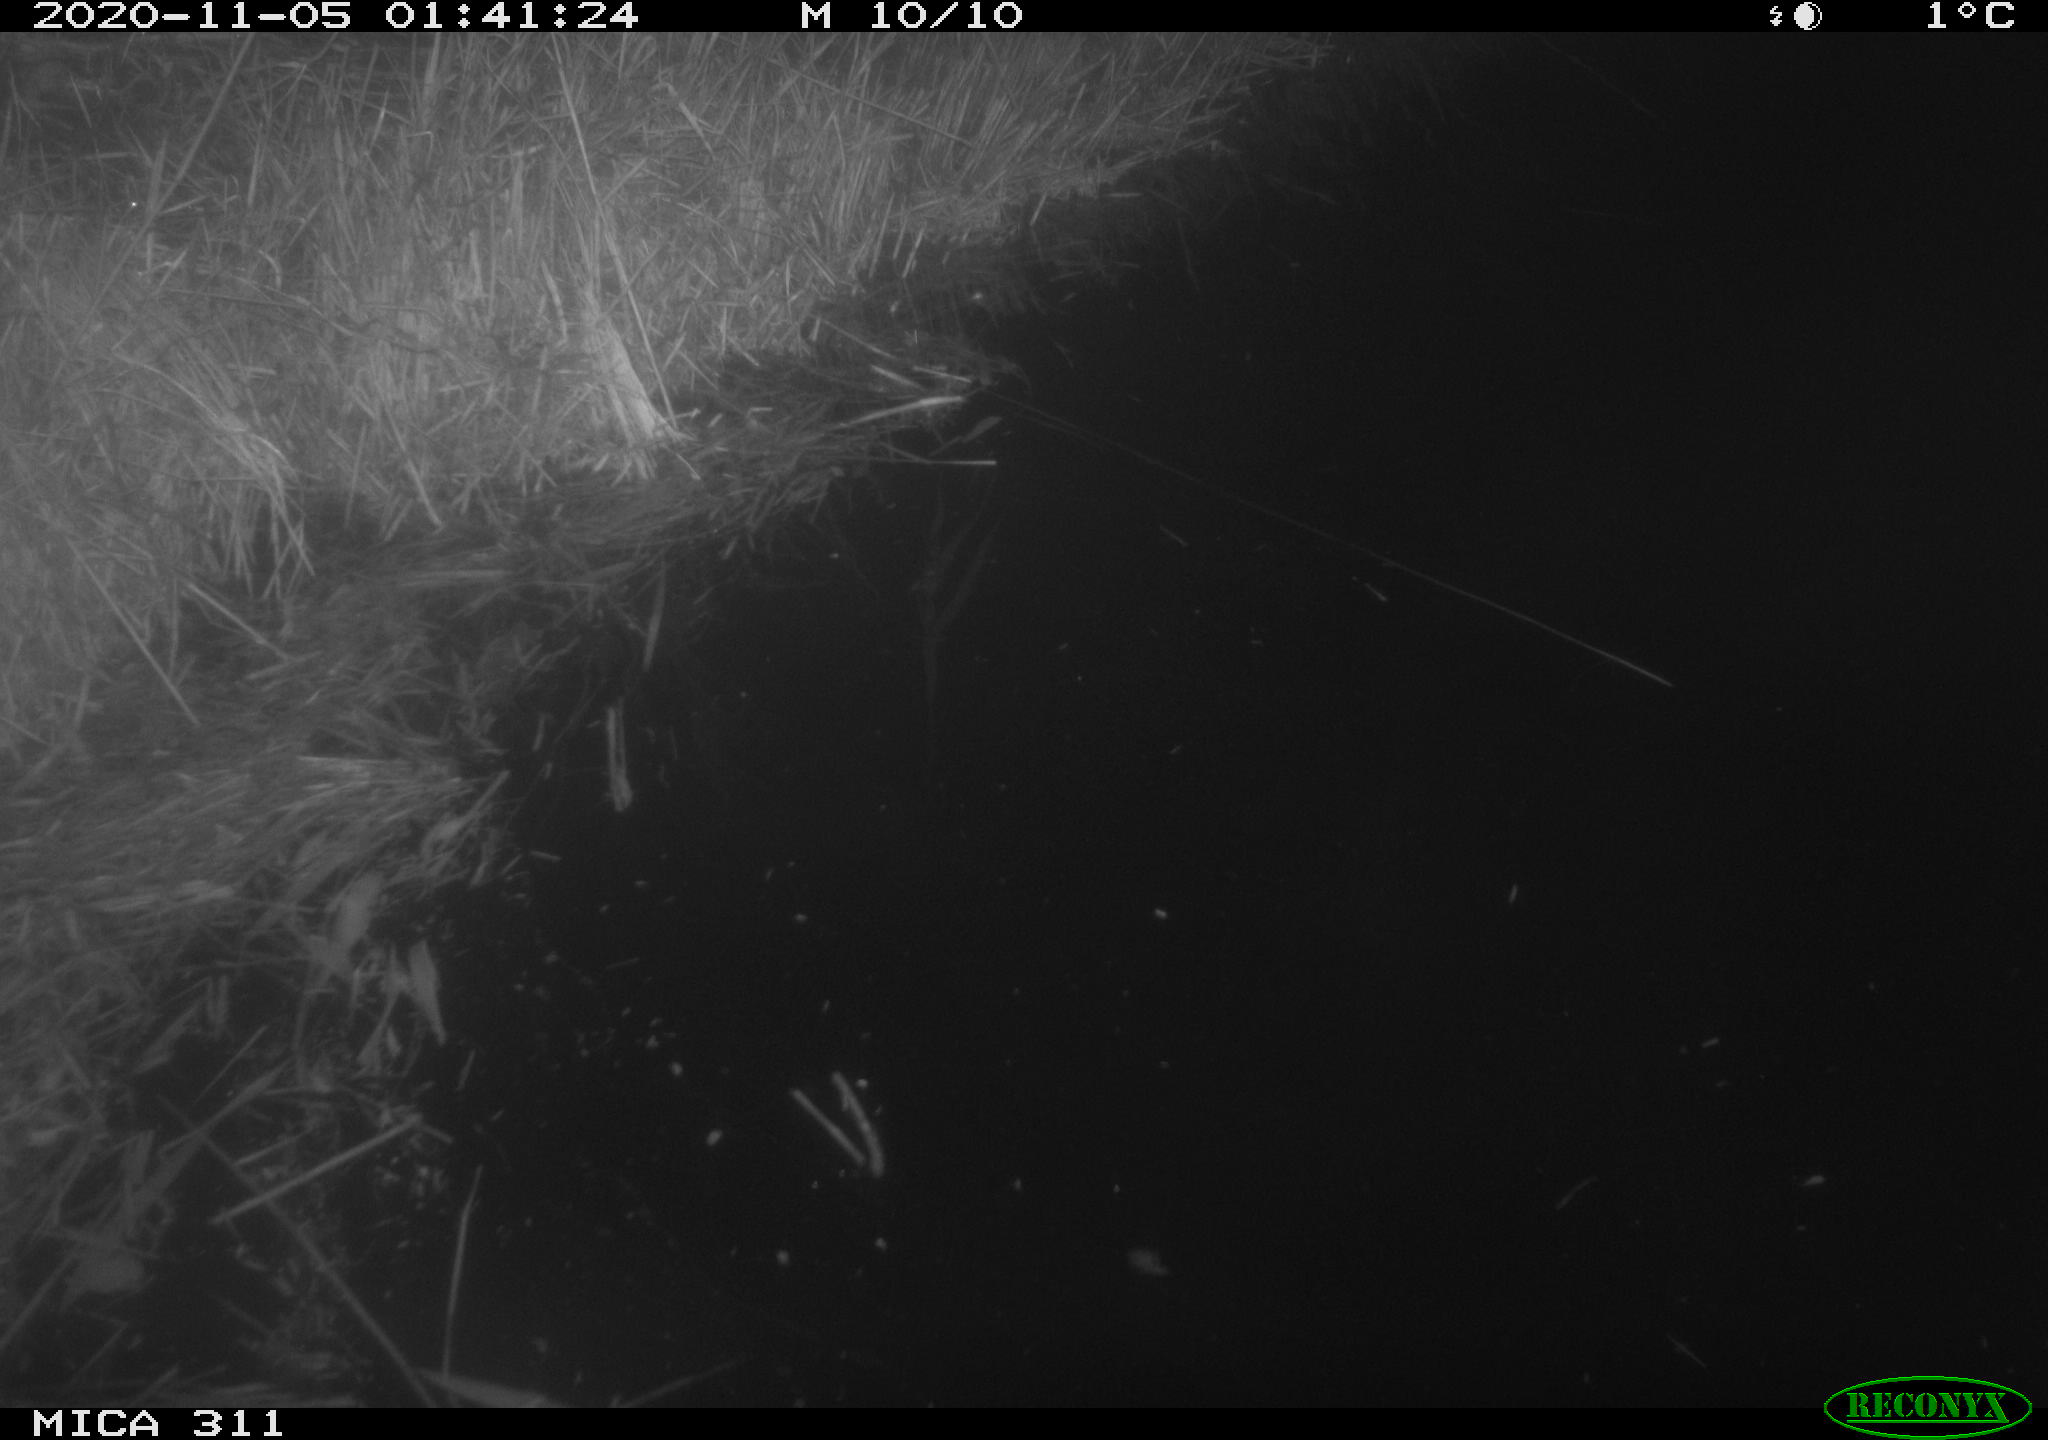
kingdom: Animalia
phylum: Chordata
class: Mammalia
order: Rodentia
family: Muridae
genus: Rattus
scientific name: Rattus norvegicus
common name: Brown rat
